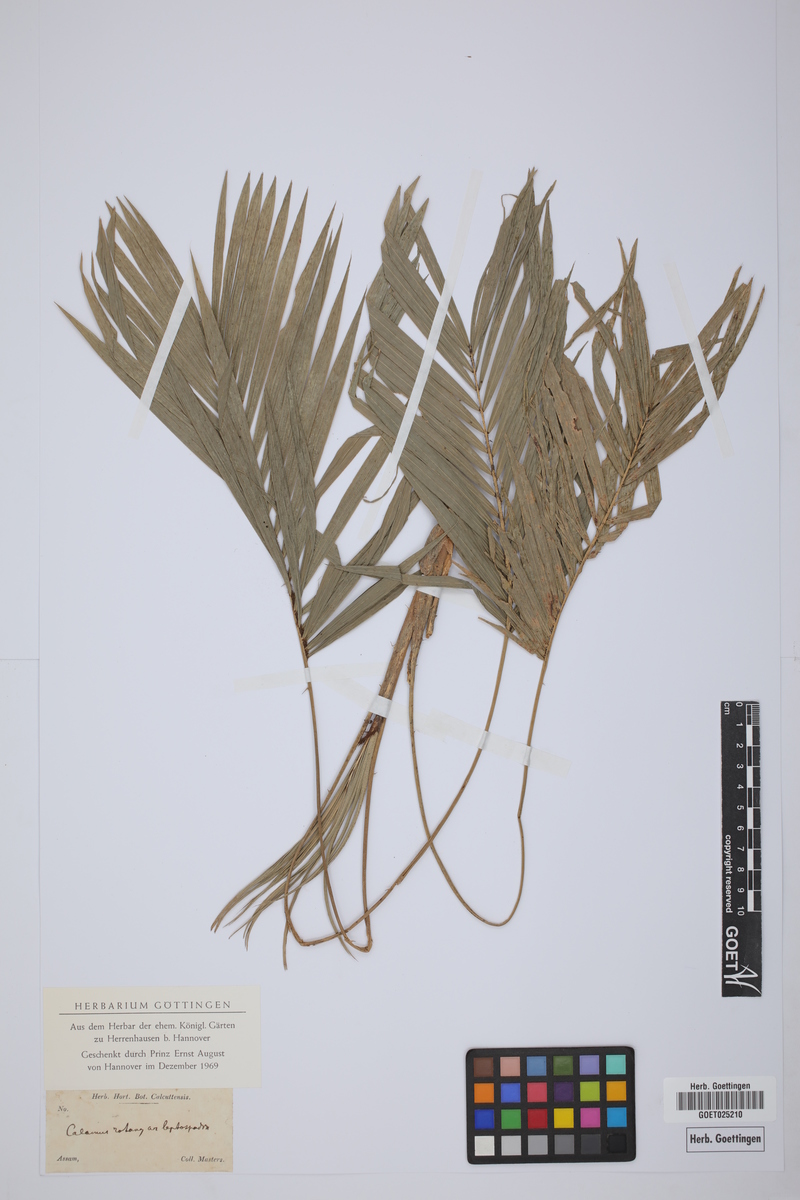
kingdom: Plantae
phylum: Tracheophyta
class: Liliopsida
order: Arecales
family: Arecaceae
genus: Calamus
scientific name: Calamus rotang
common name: Rattan cane
